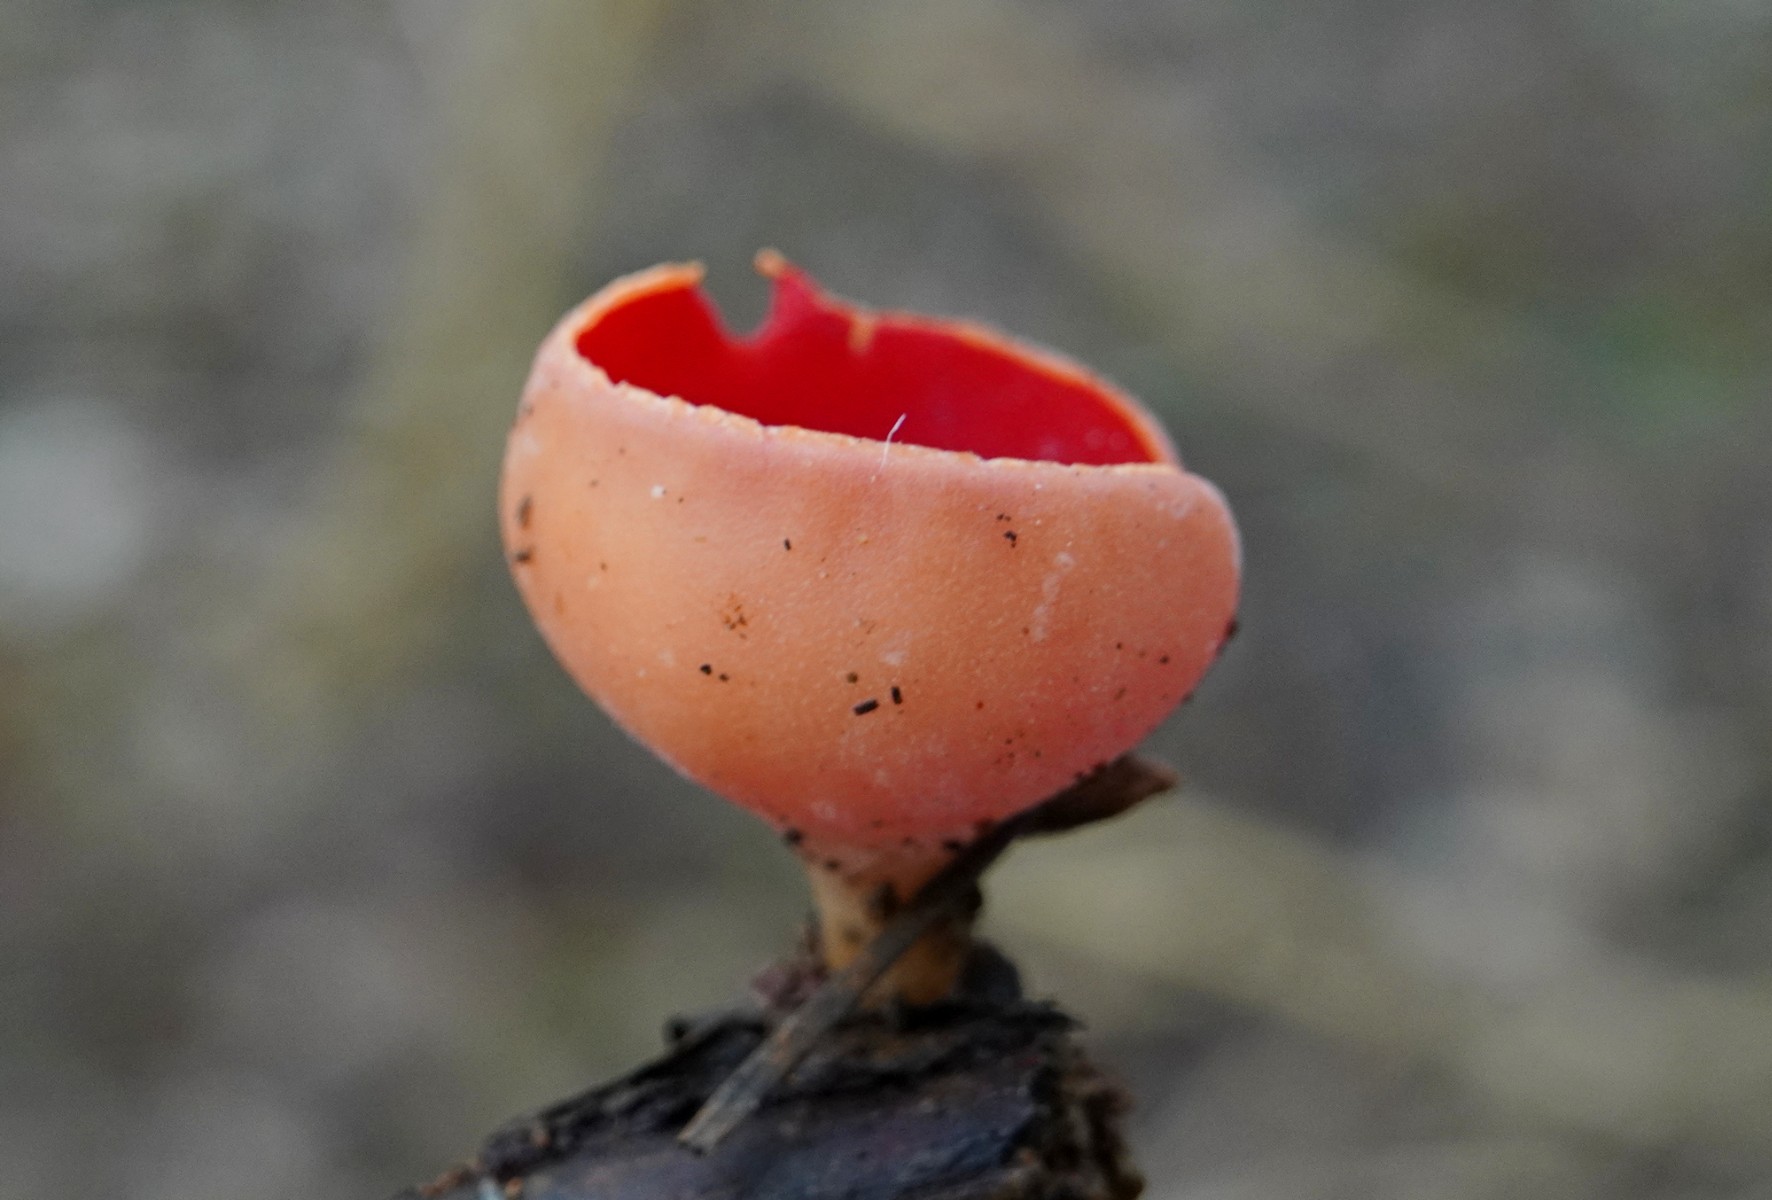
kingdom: Fungi
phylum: Ascomycota
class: Pezizomycetes
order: Pezizales
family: Sarcoscyphaceae
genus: Sarcoscypha
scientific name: Sarcoscypha austriaca
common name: krølhåret pragtbæger
